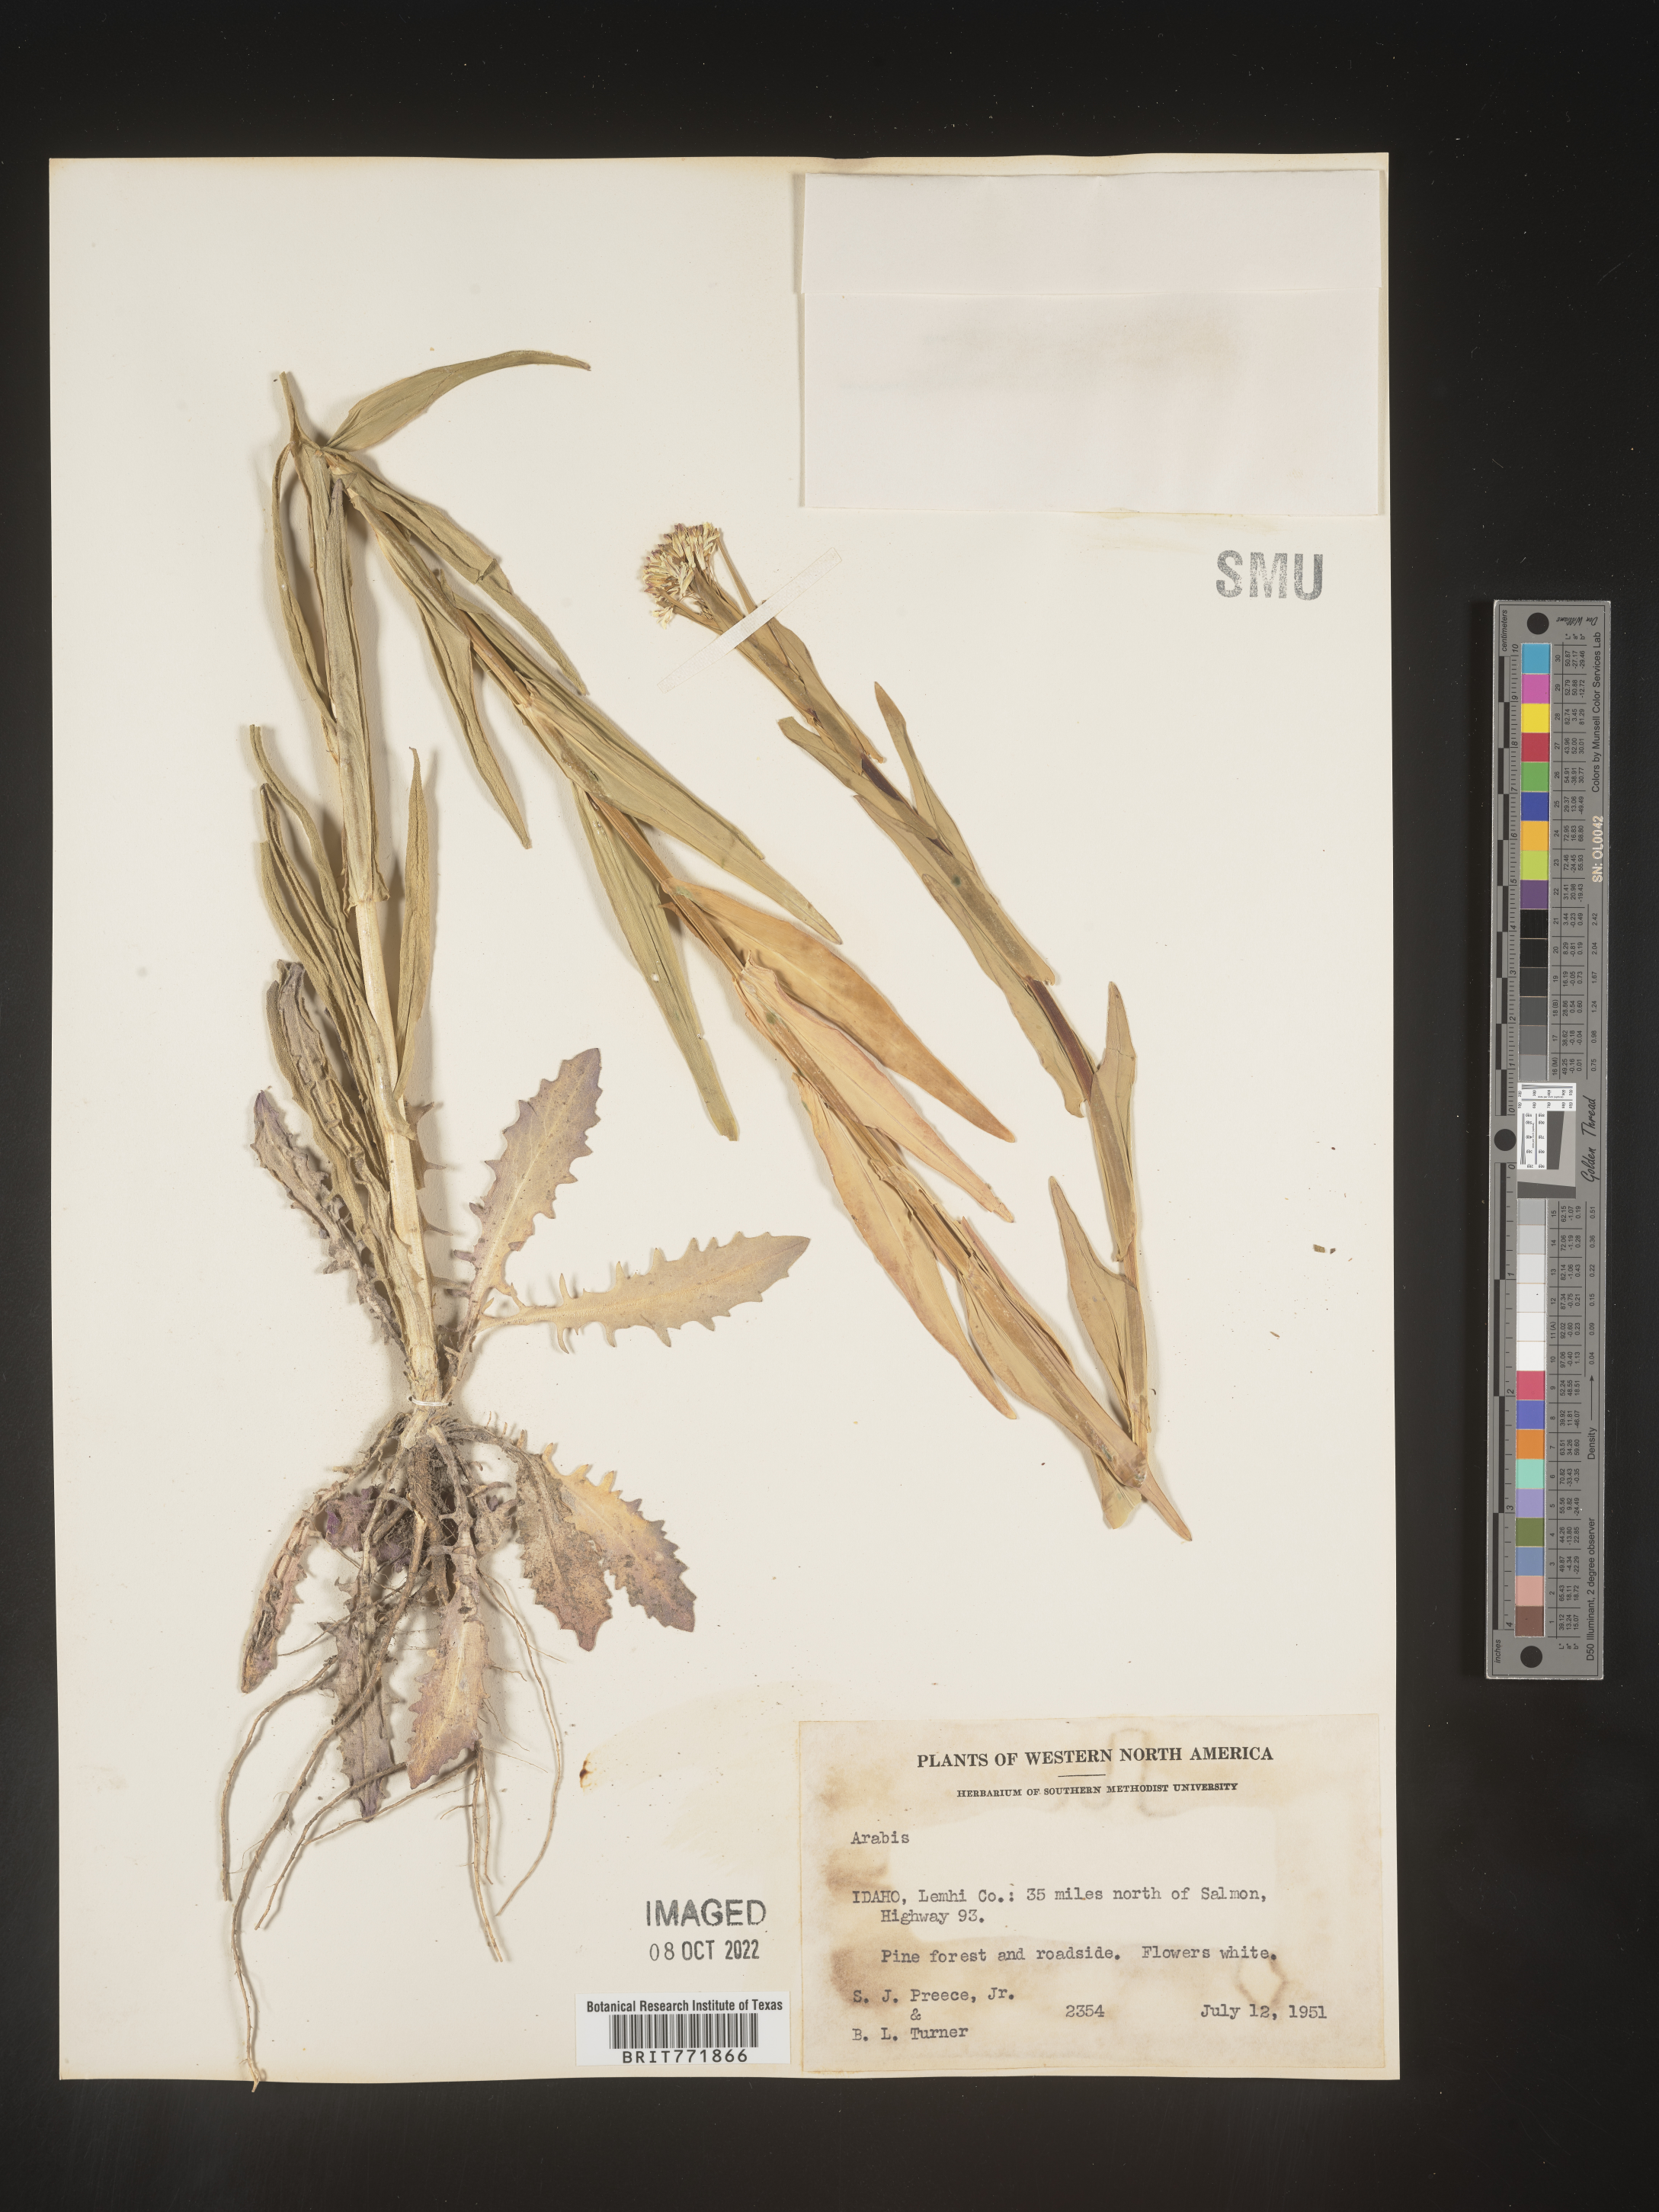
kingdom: Plantae
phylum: Tracheophyta
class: Magnoliopsida
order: Brassicales
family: Brassicaceae
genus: Arabis
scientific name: Arabis
